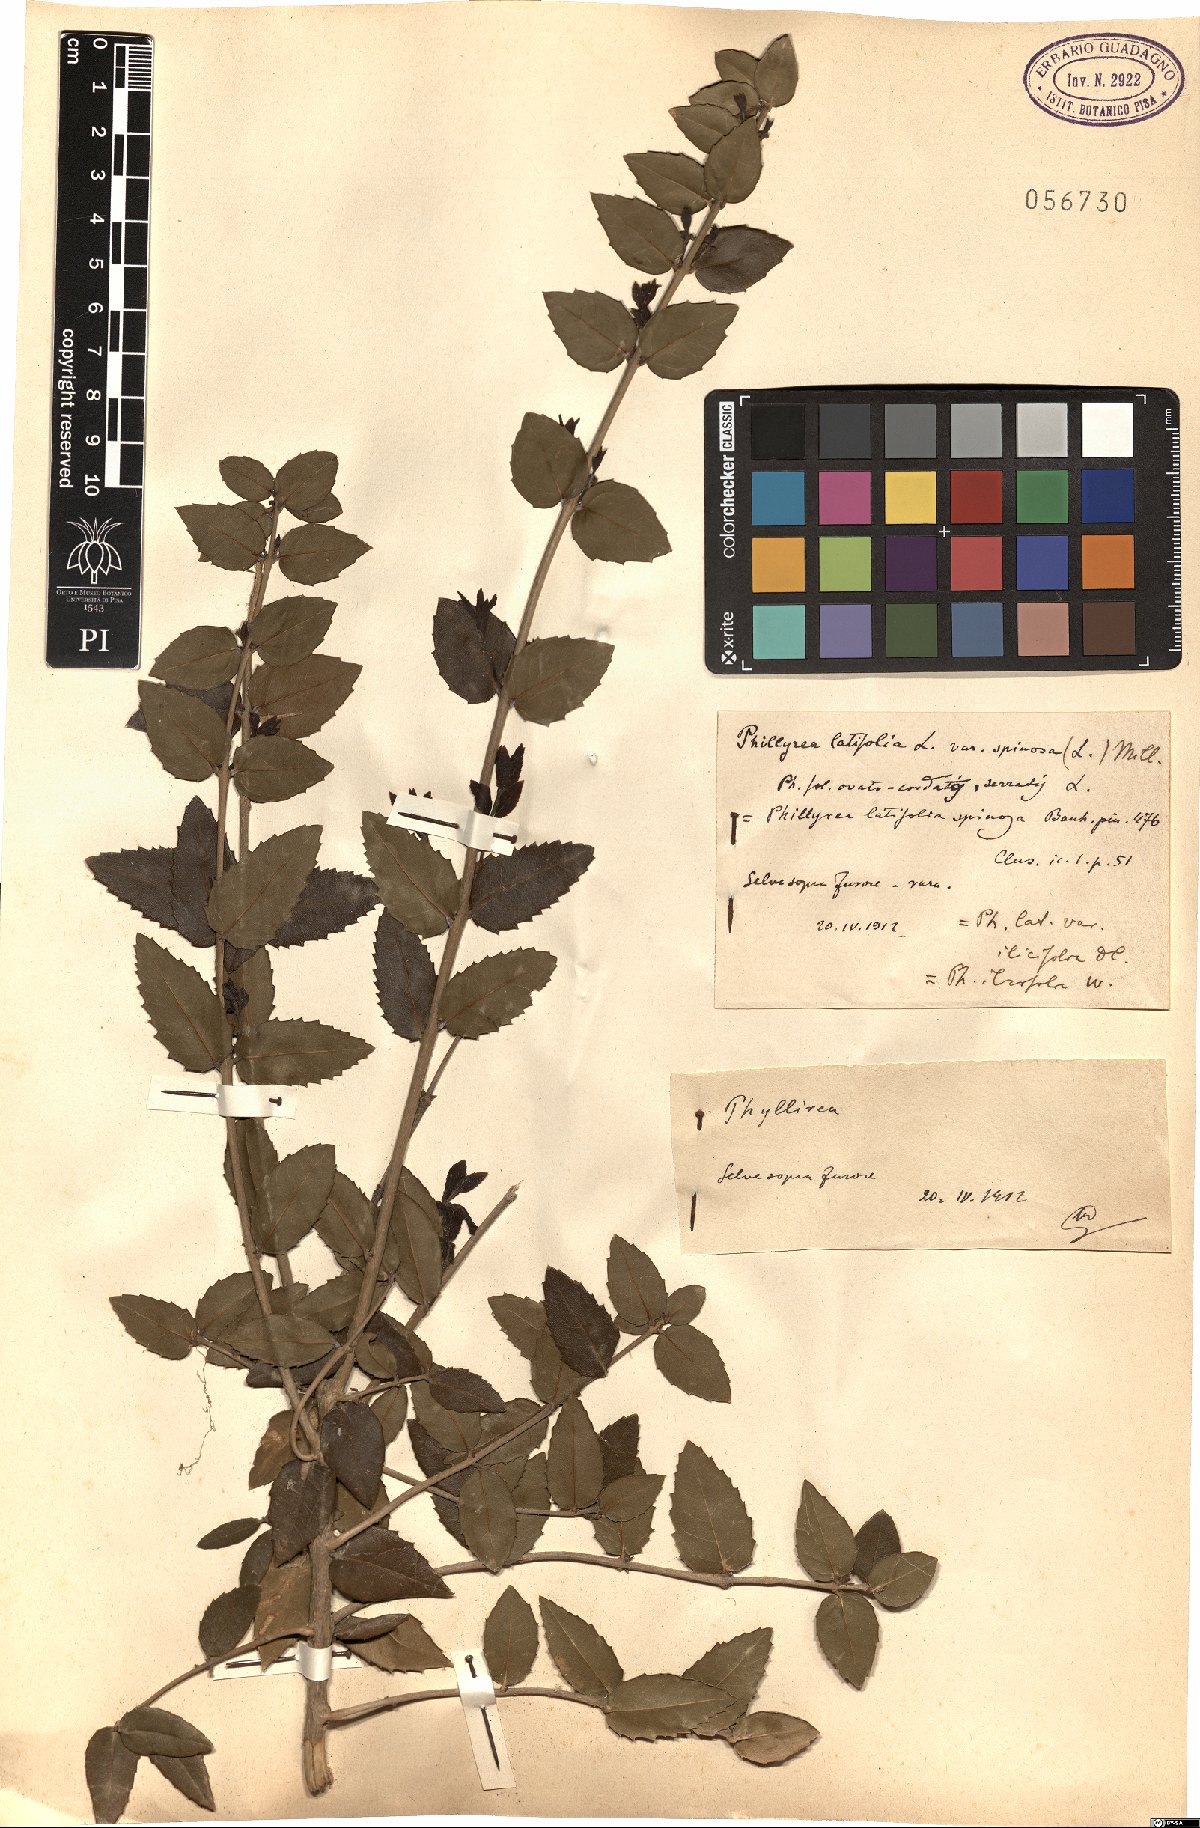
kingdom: Plantae
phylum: Tracheophyta
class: Magnoliopsida
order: Lamiales
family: Oleaceae
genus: Phillyrea
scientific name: Phillyrea latifolia
